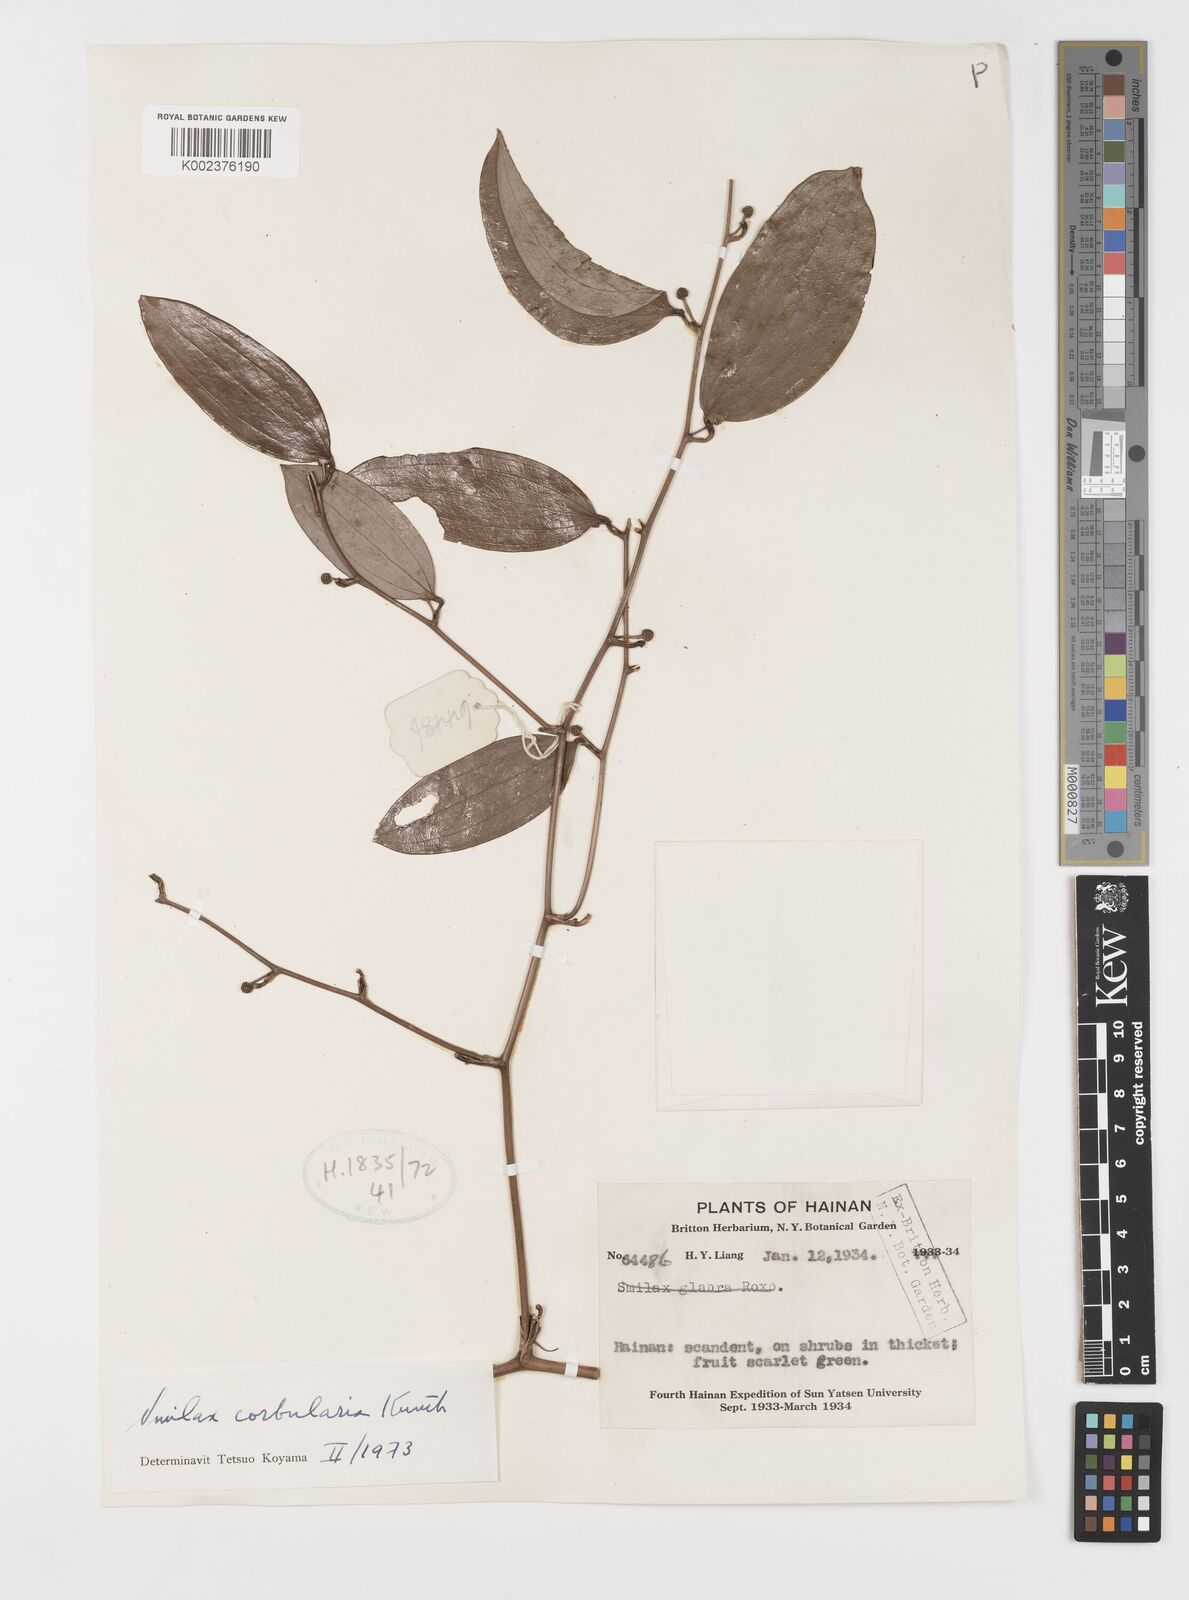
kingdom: Plantae
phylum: Tracheophyta
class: Liliopsida
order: Liliales
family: Smilacaceae
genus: Smilax
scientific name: Smilax corbularia
